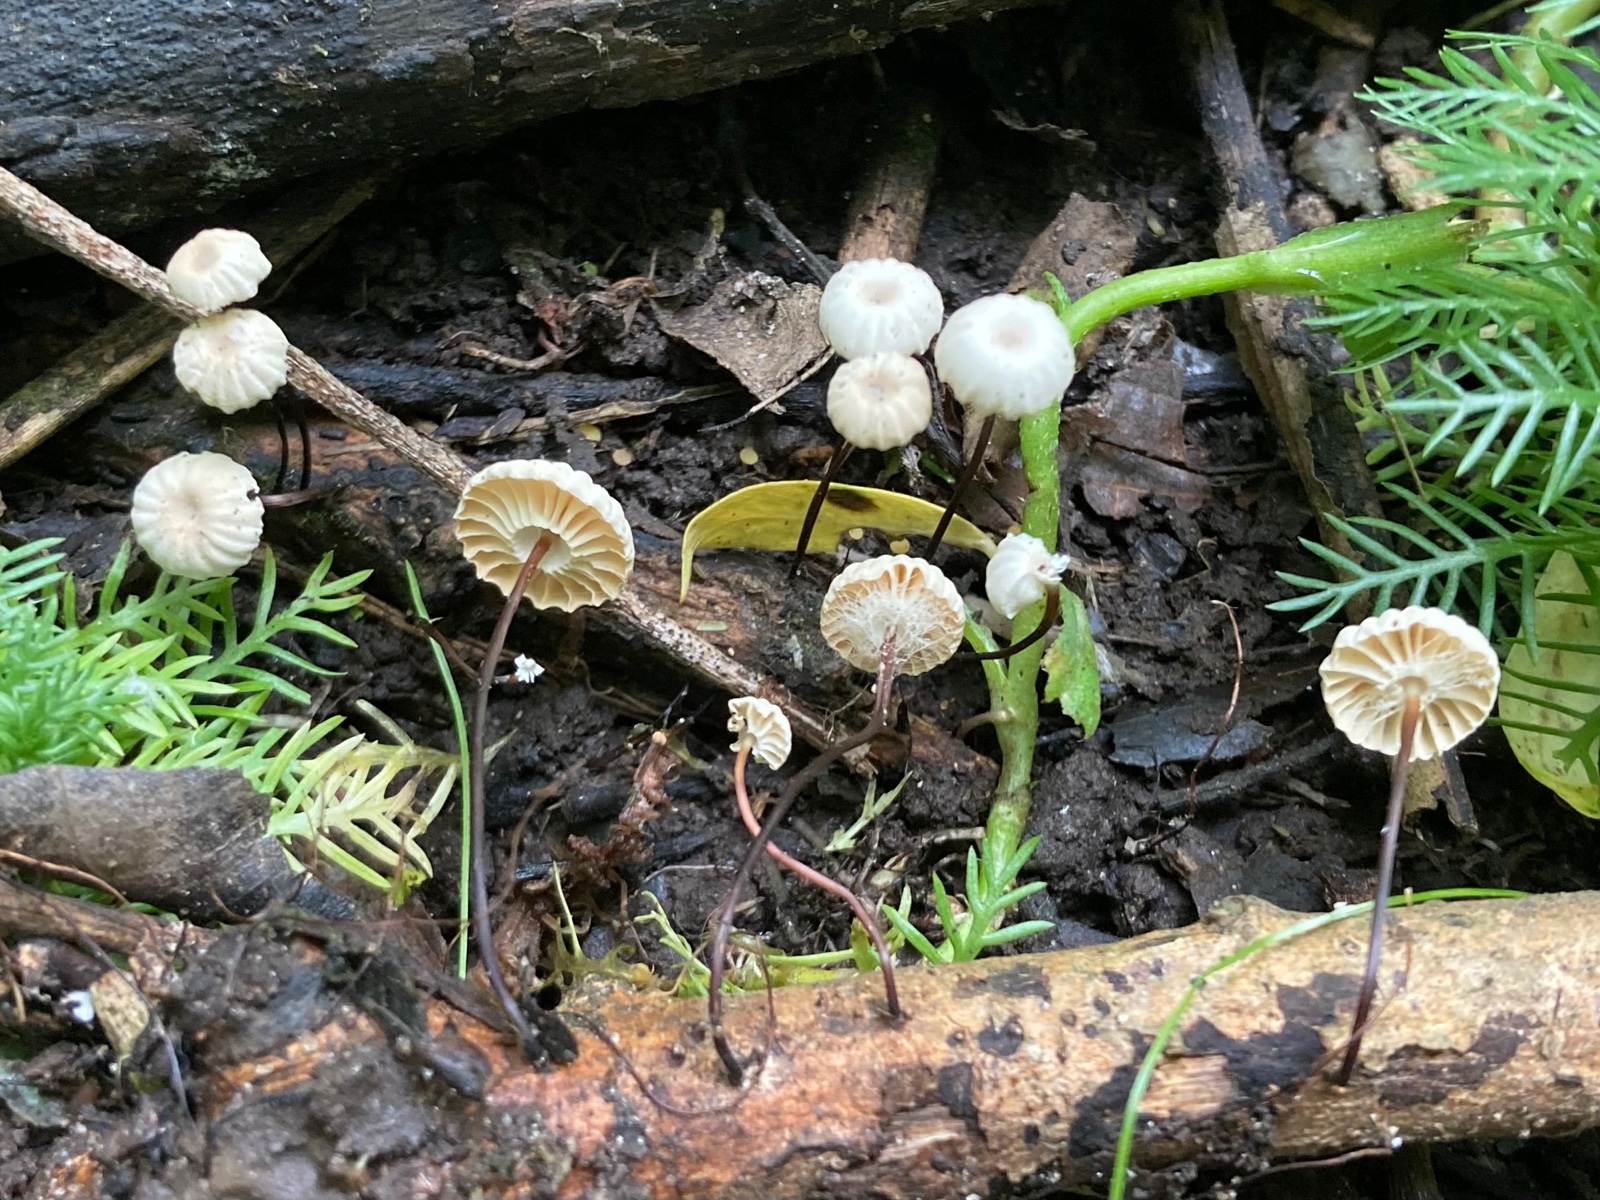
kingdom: Fungi
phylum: Basidiomycota
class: Agaricomycetes
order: Agaricales
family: Marasmiaceae
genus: Marasmius
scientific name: Marasmius rotula
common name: hjul-bruskhat
